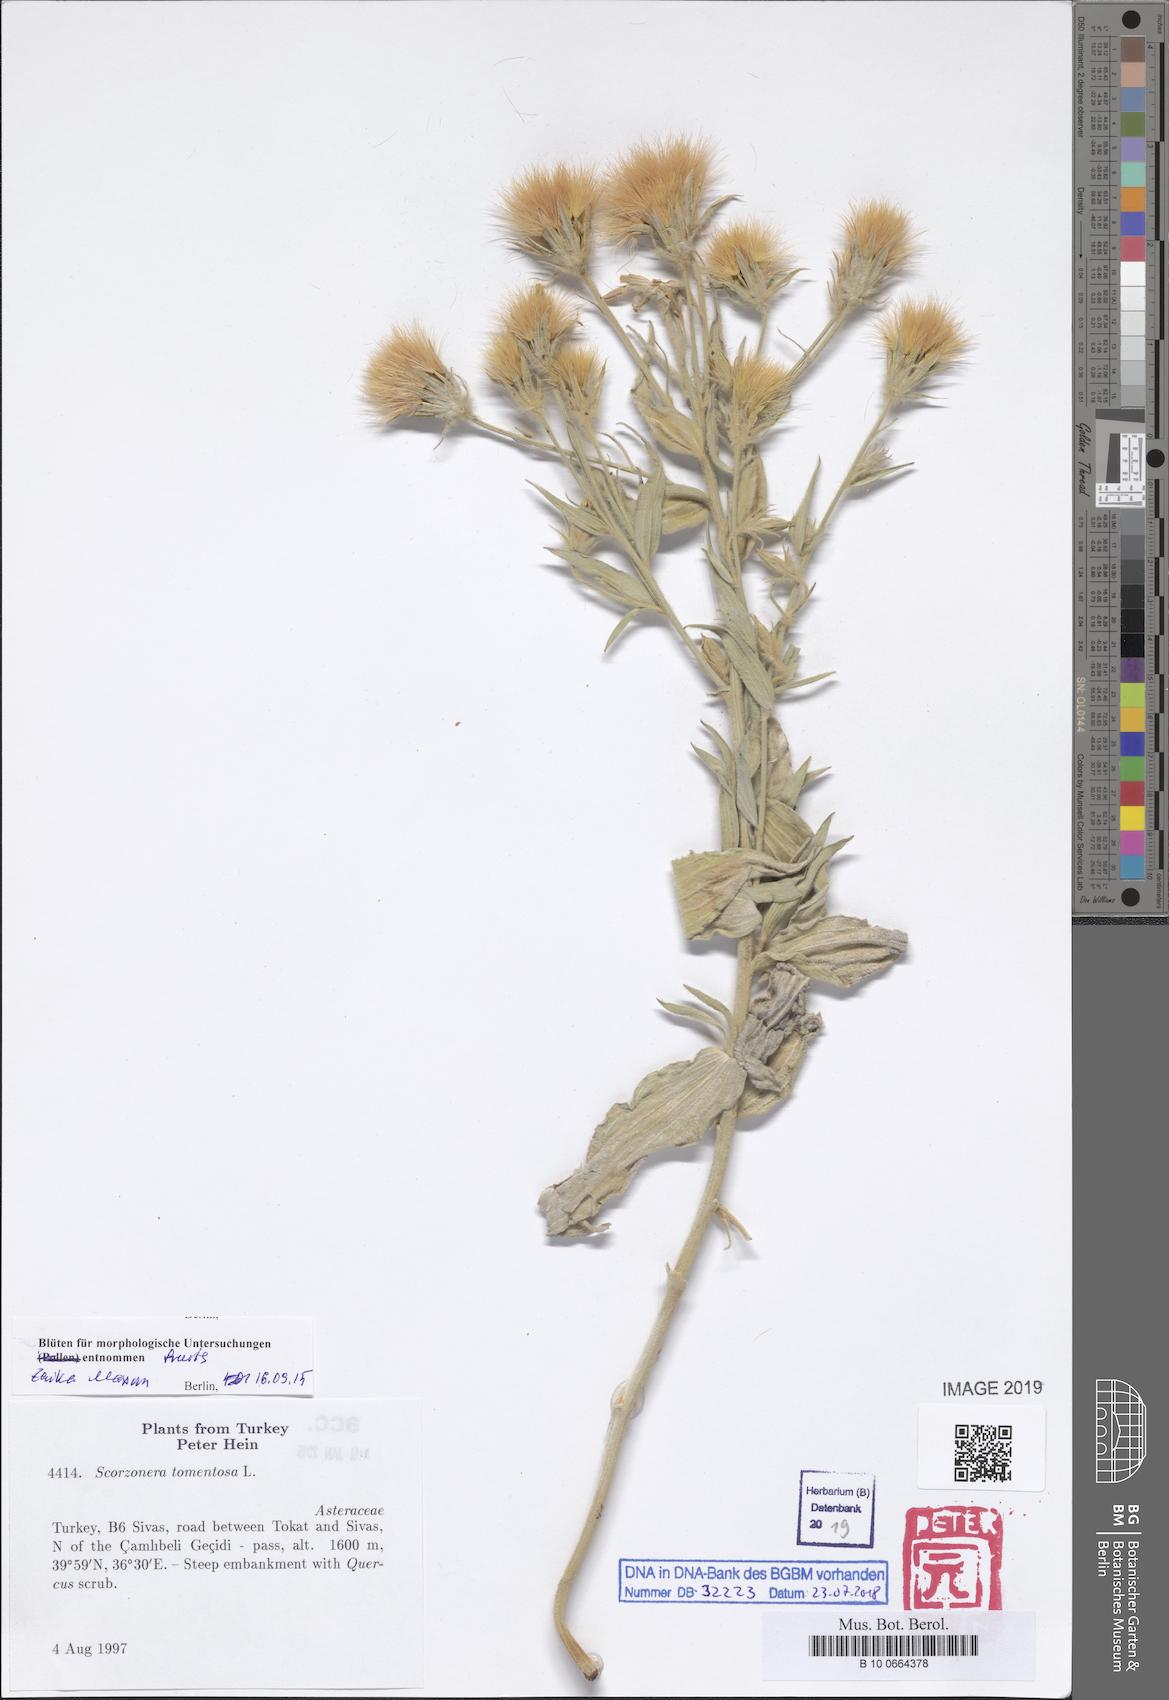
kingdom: Plantae
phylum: Tracheophyta
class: Magnoliopsida
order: Asterales
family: Asteraceae
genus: Guneria
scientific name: Guneria tomentosa
